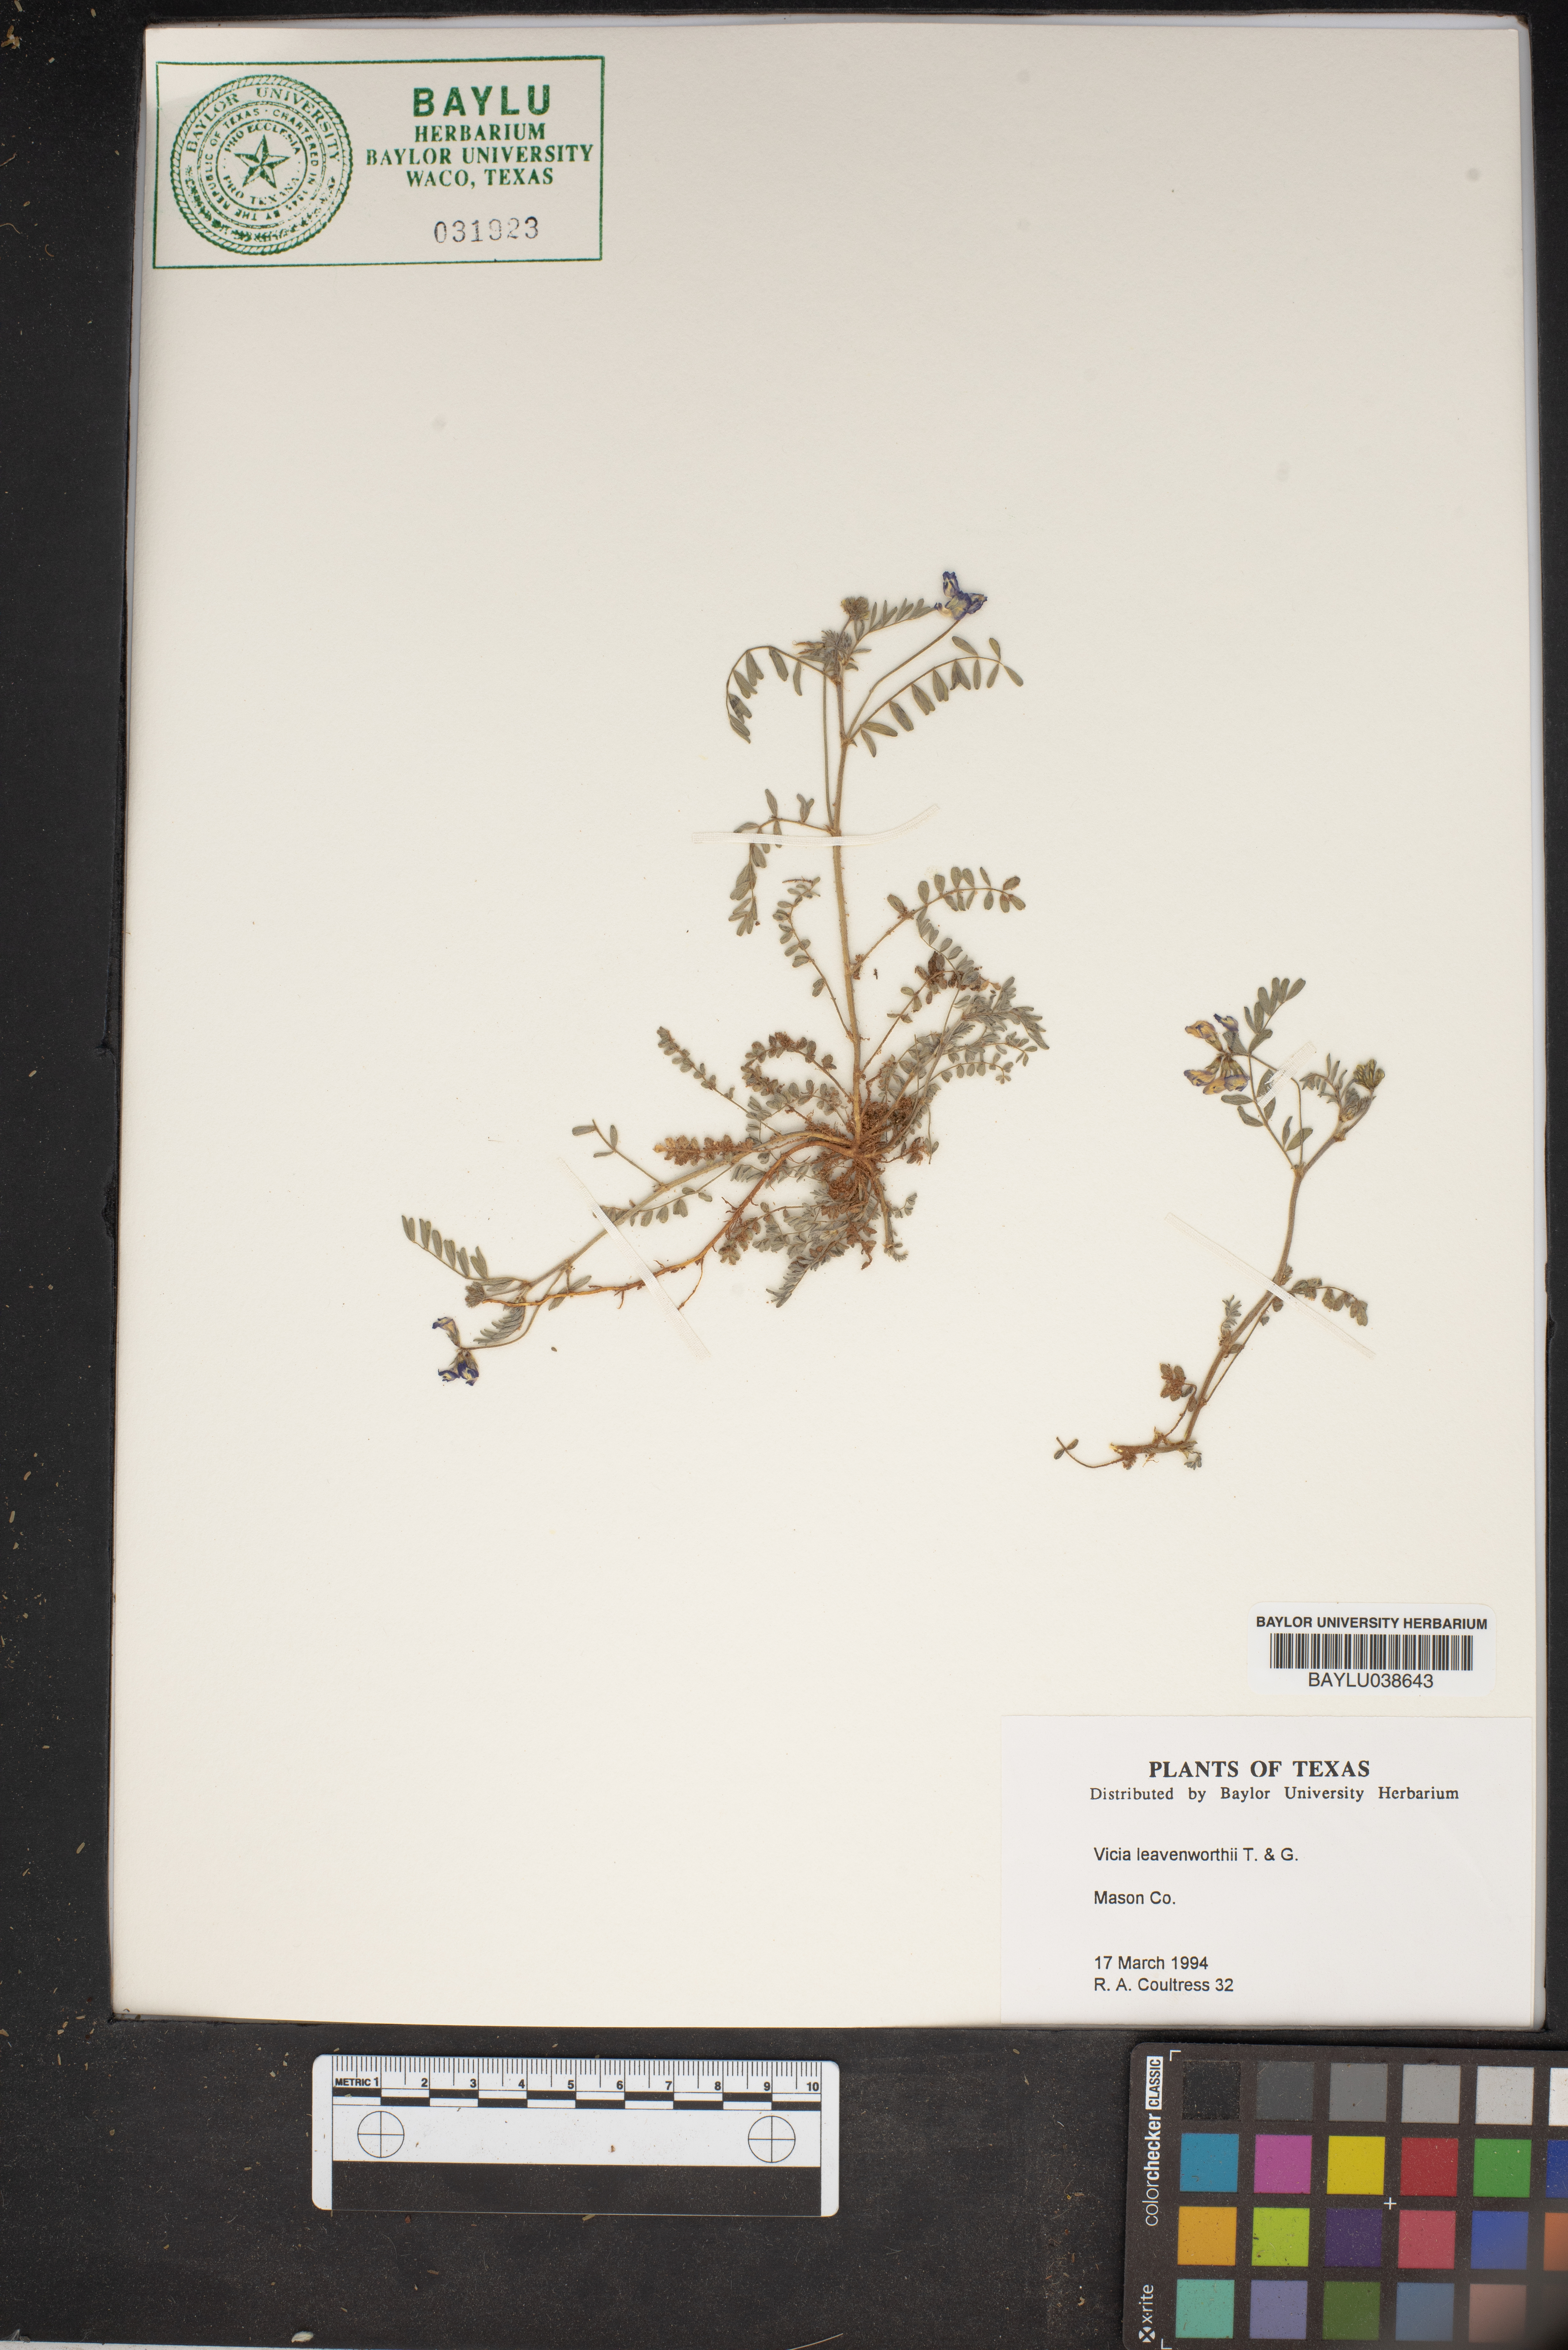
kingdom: Plantae
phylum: Tracheophyta
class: Magnoliopsida
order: Fabales
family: Fabaceae
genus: Vicia
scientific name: Vicia ludoviciana
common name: Louisiana vetch
